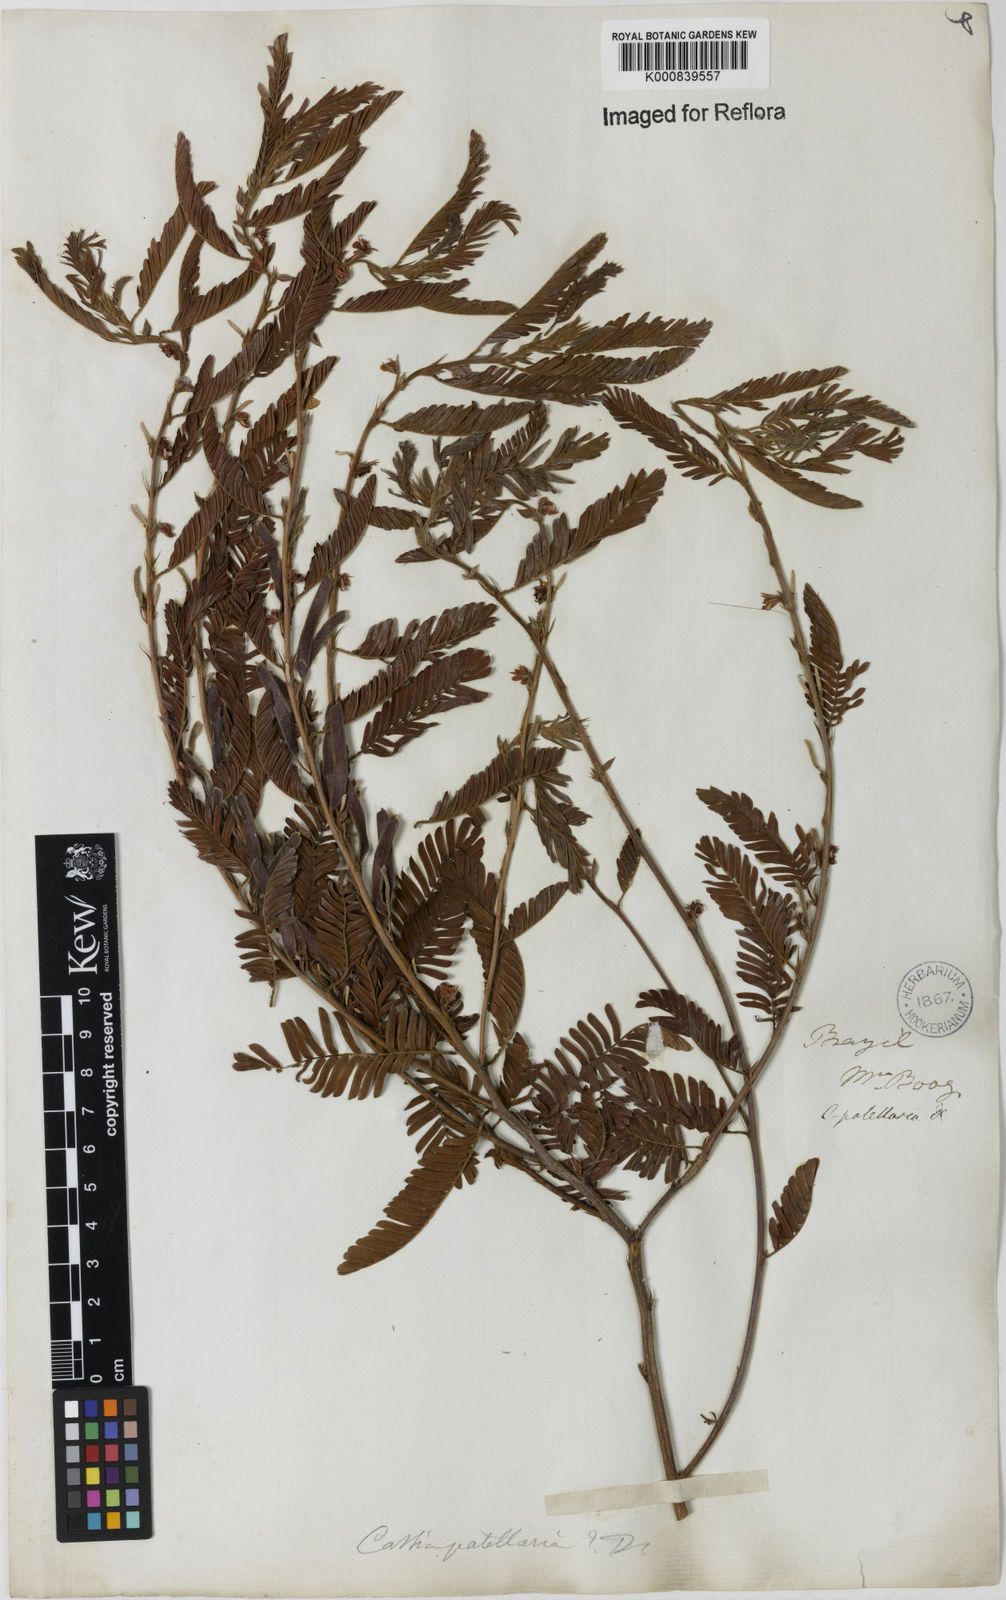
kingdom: Plantae
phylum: Tracheophyta
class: Magnoliopsida
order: Fabales
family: Fabaceae
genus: Chamaecrista
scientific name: Chamaecrista nictitans
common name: Sensitive cassia
